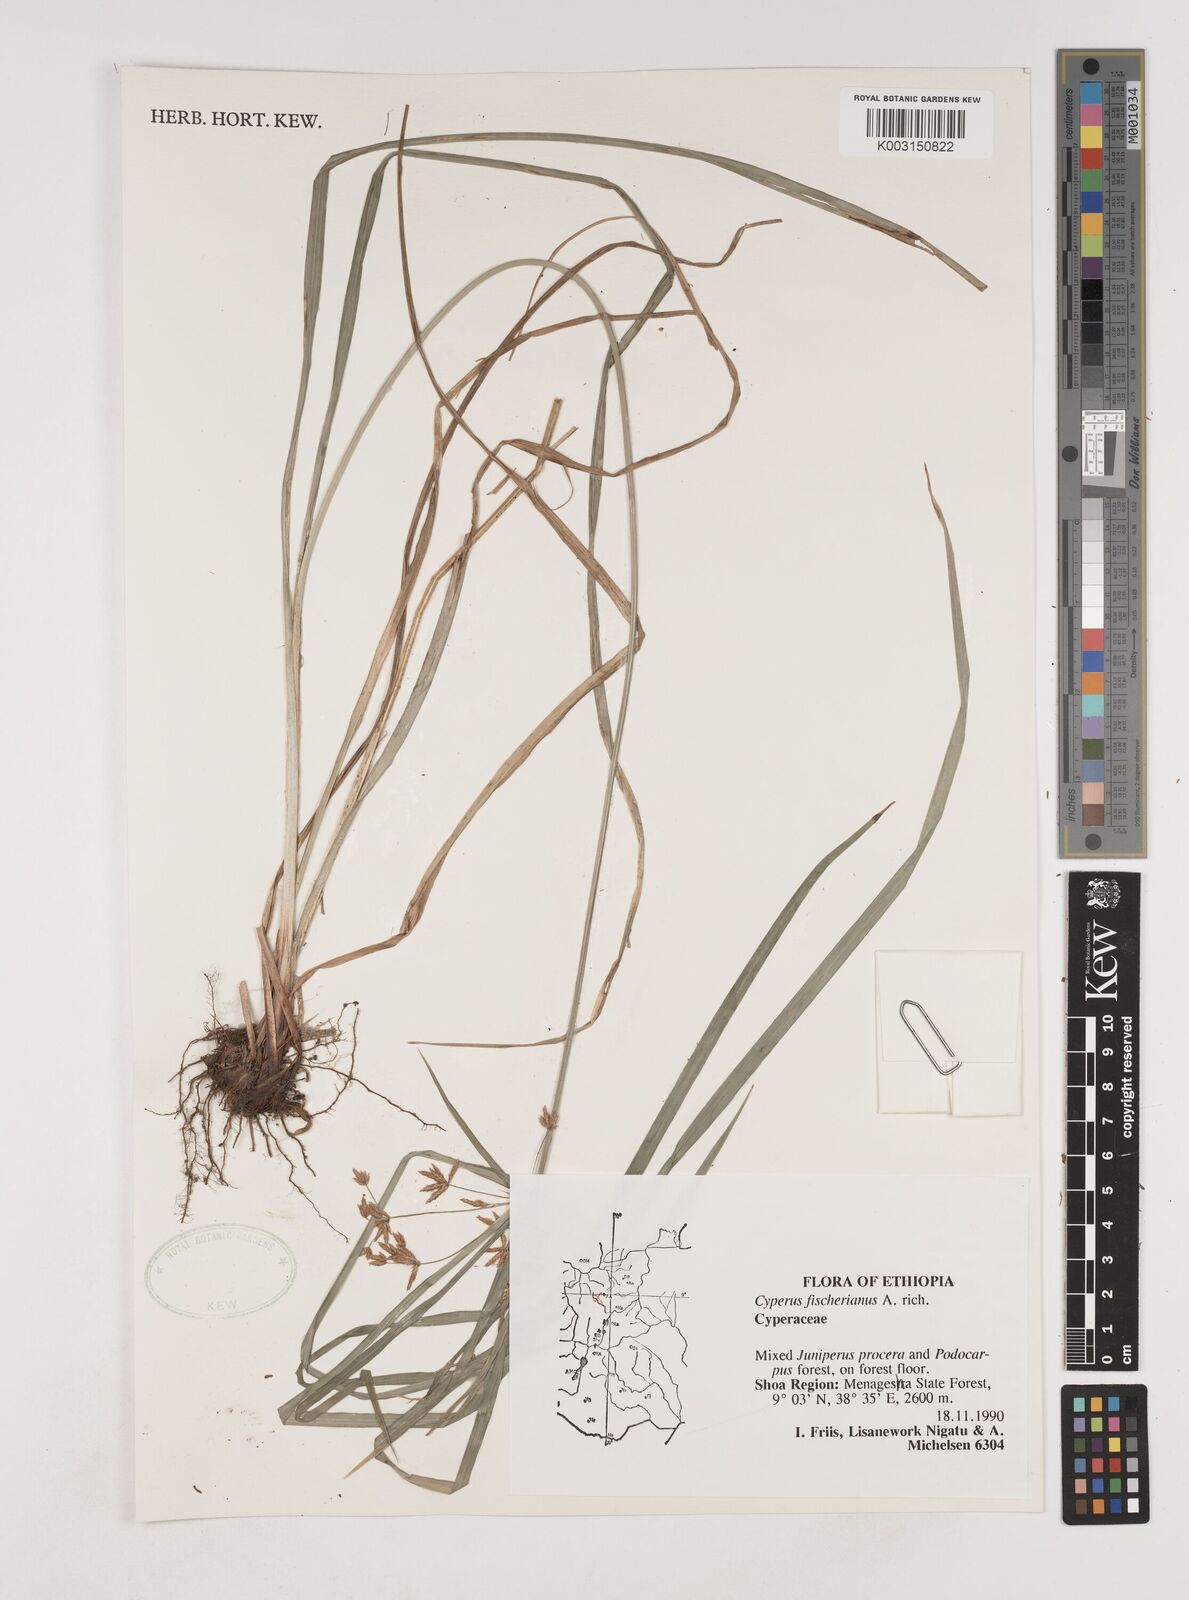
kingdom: Plantae
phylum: Tracheophyta
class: Liliopsida
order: Poales
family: Cyperaceae
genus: Cyperus
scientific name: Cyperus fischerianus
